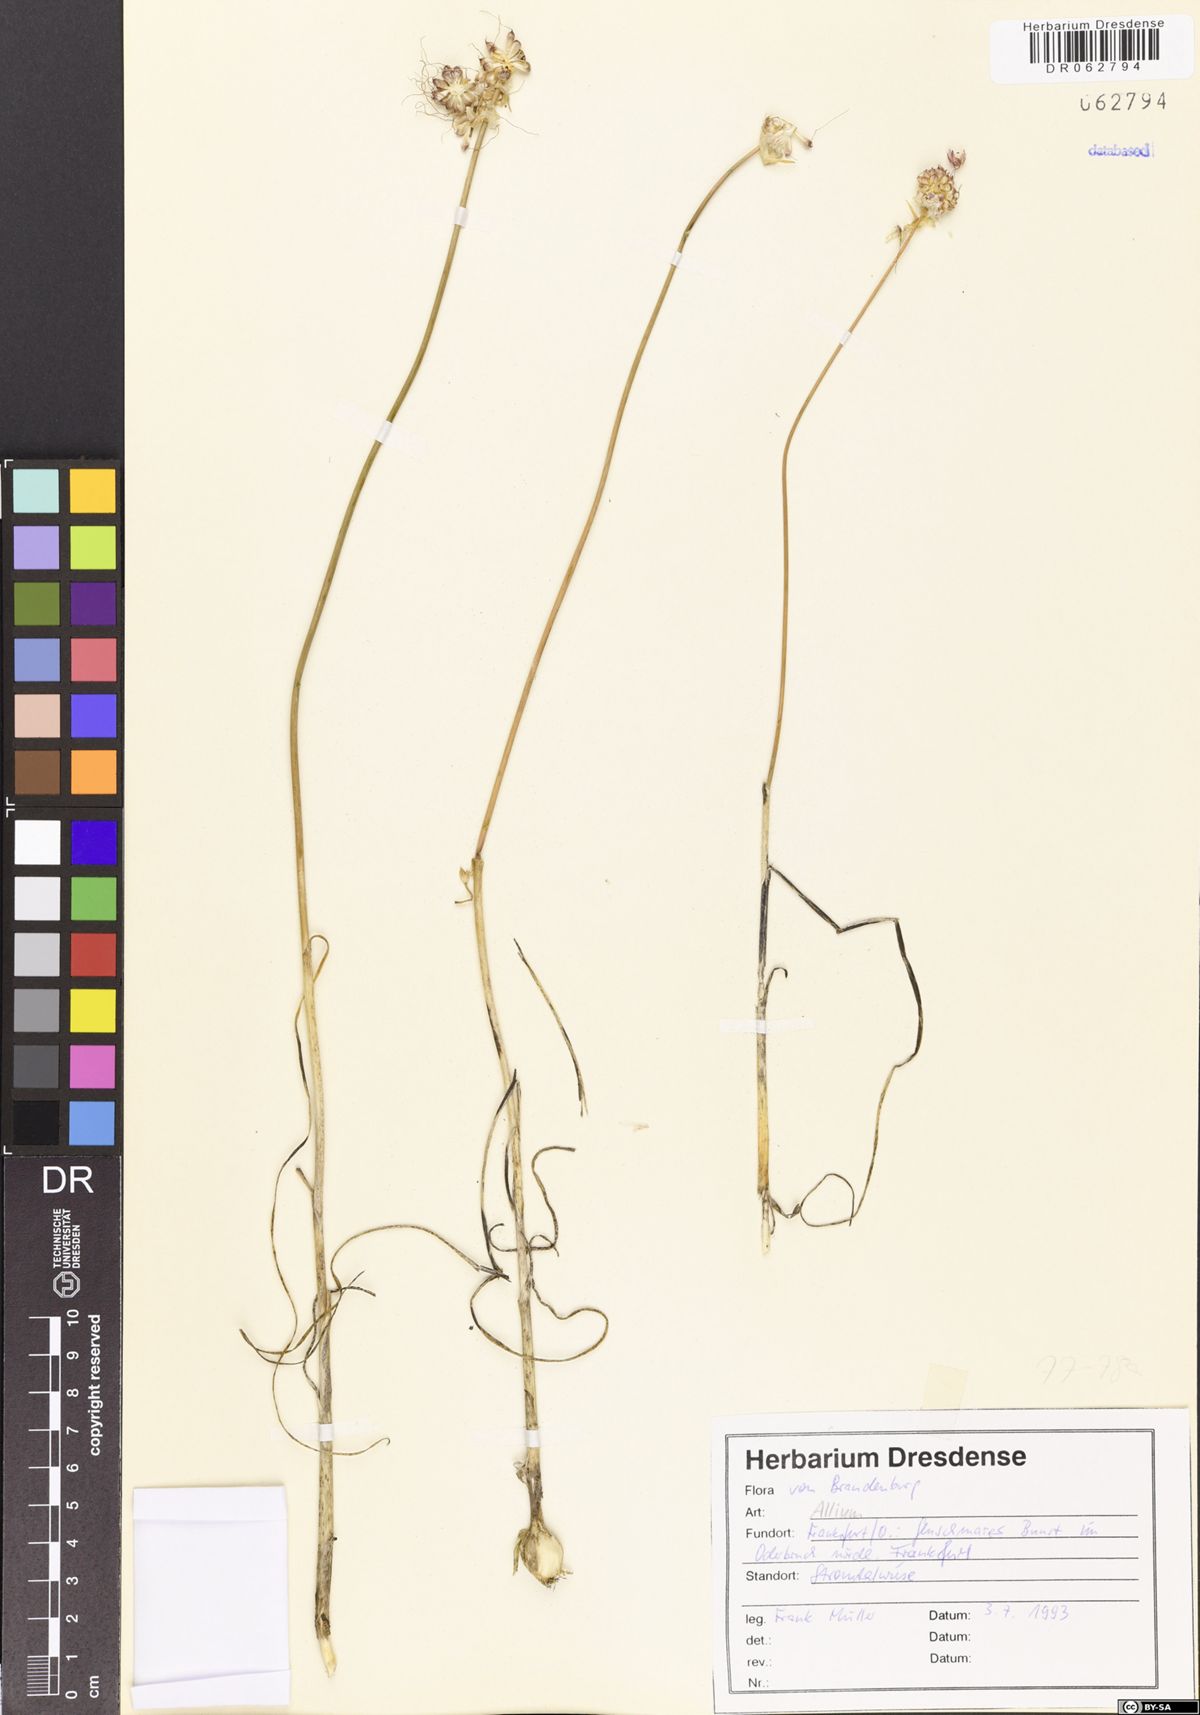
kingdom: Plantae
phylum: Tracheophyta
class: Liliopsida
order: Asparagales
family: Amaryllidaceae
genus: Allium
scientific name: Allium
